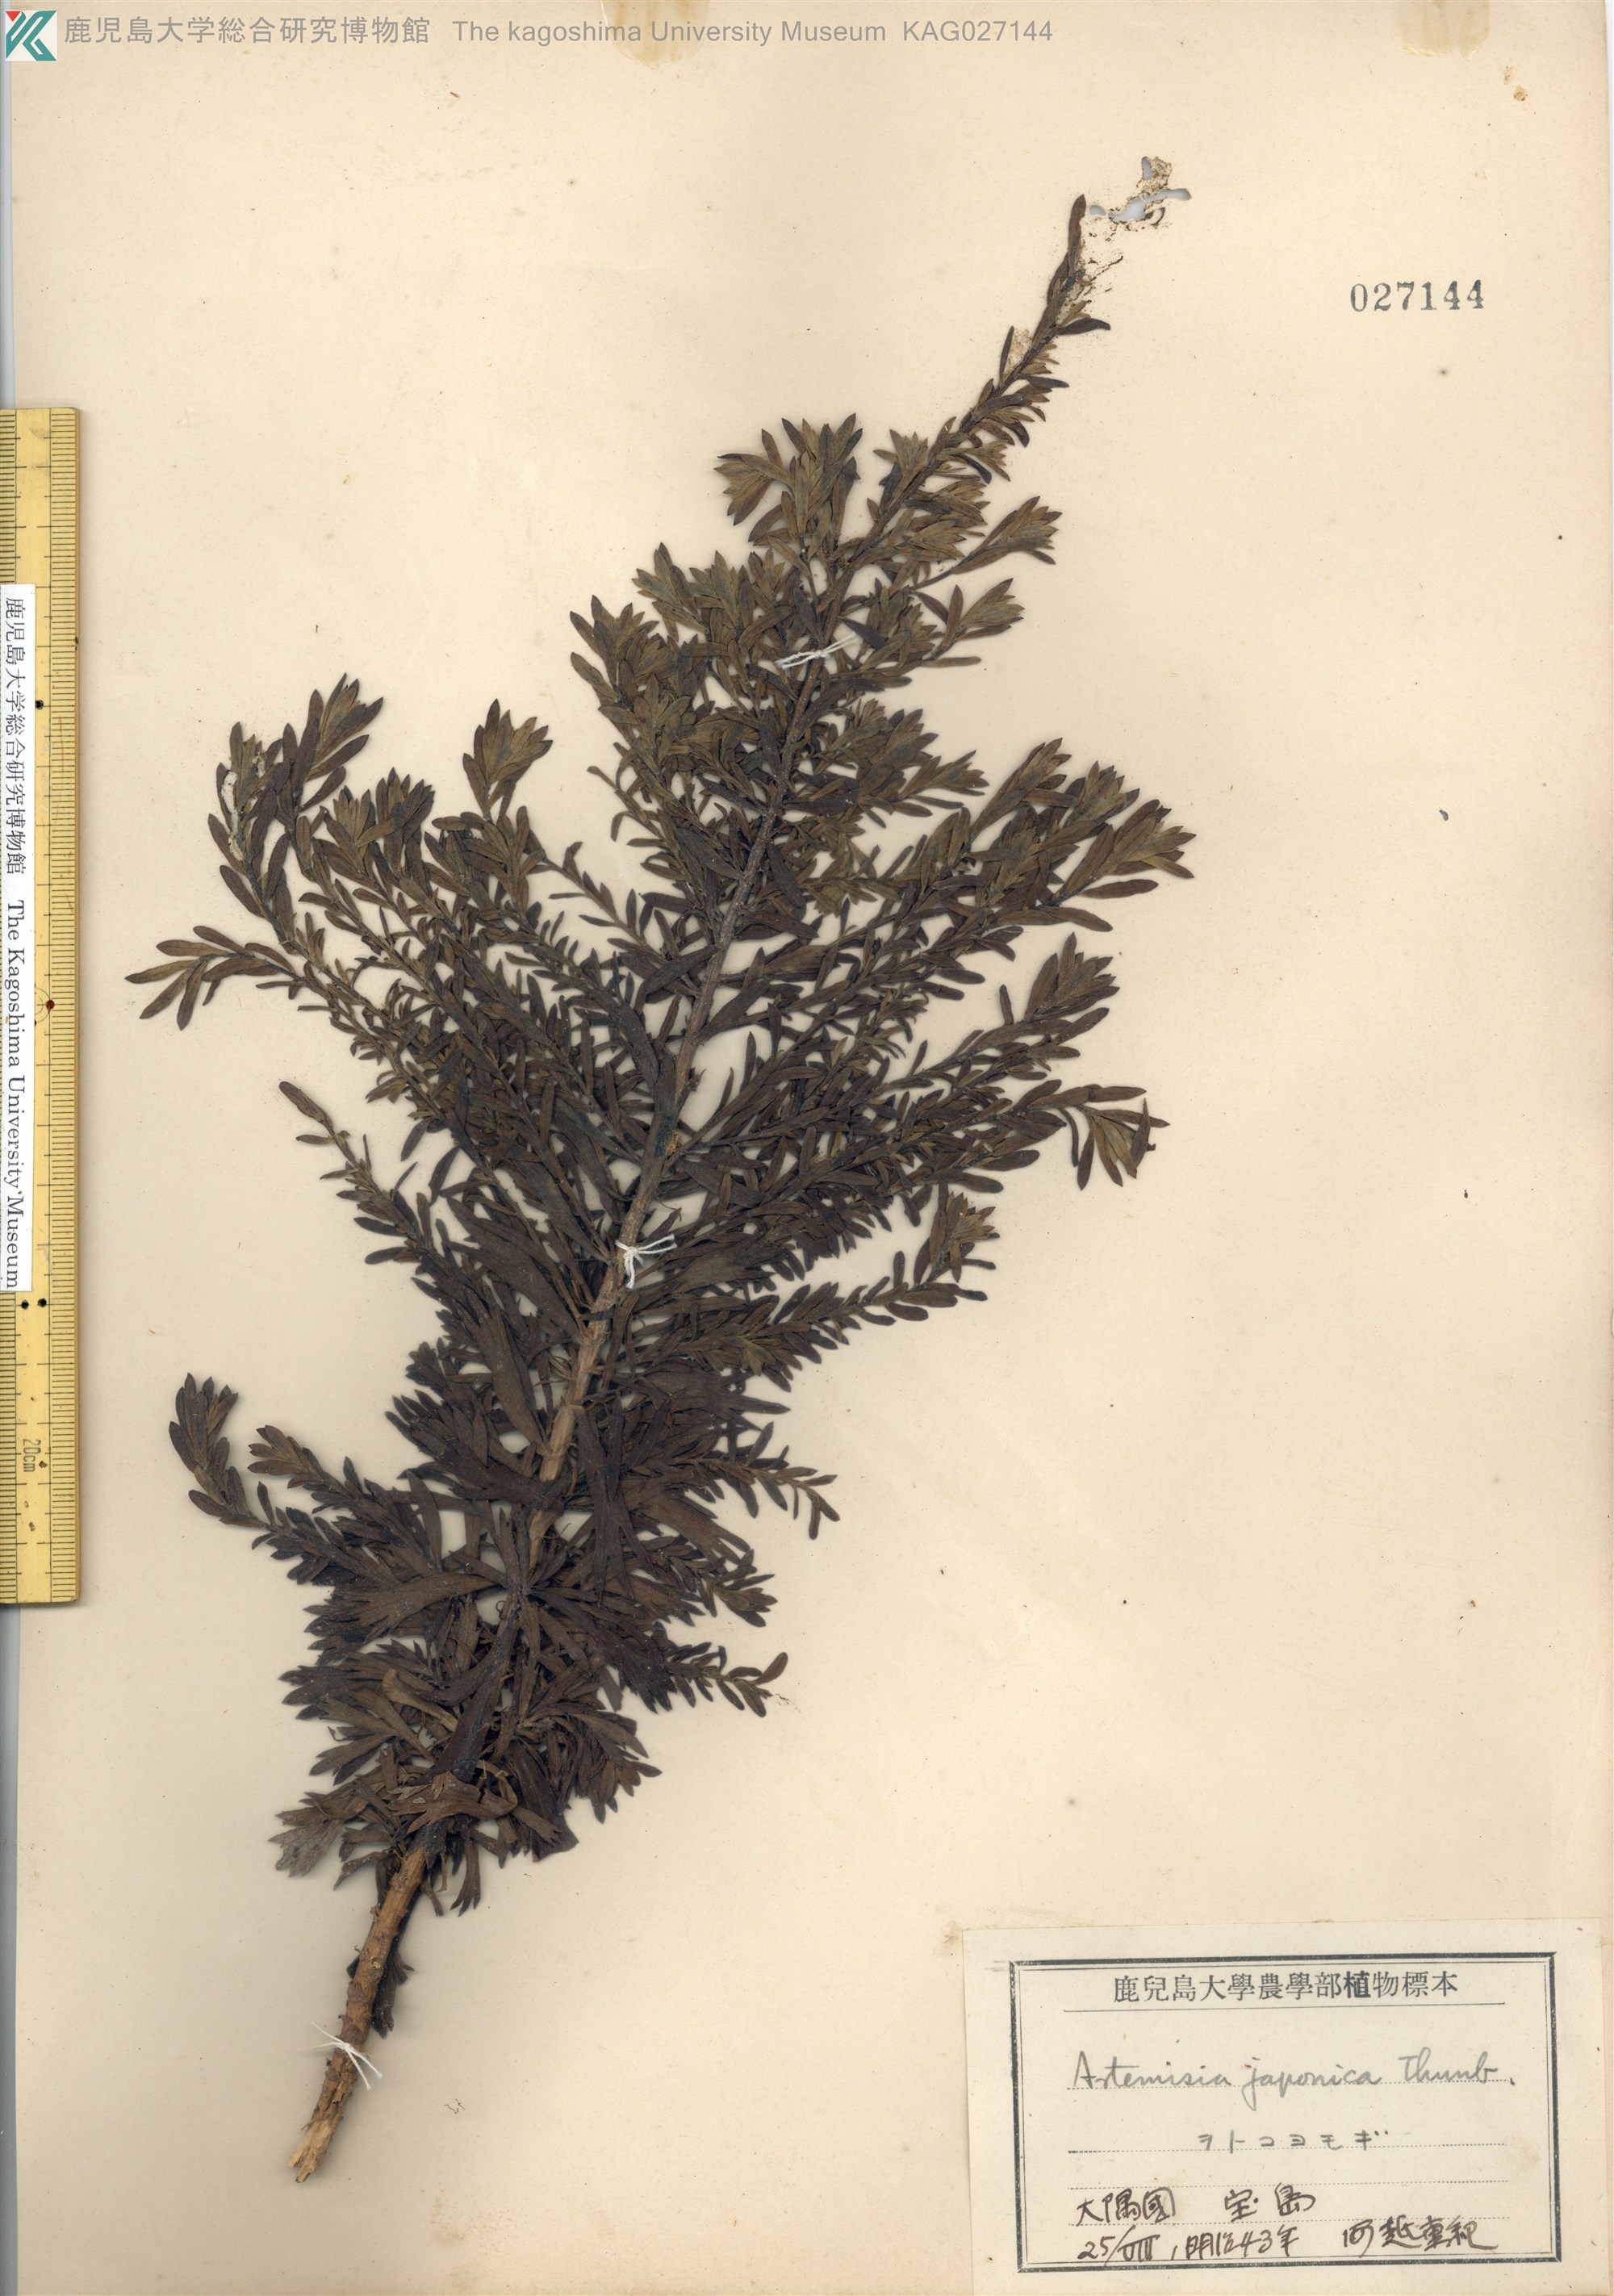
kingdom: Plantae
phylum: Tracheophyta
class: Magnoliopsida
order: Asterales
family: Asteraceae
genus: Artemisia
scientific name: Artemisia japonica
